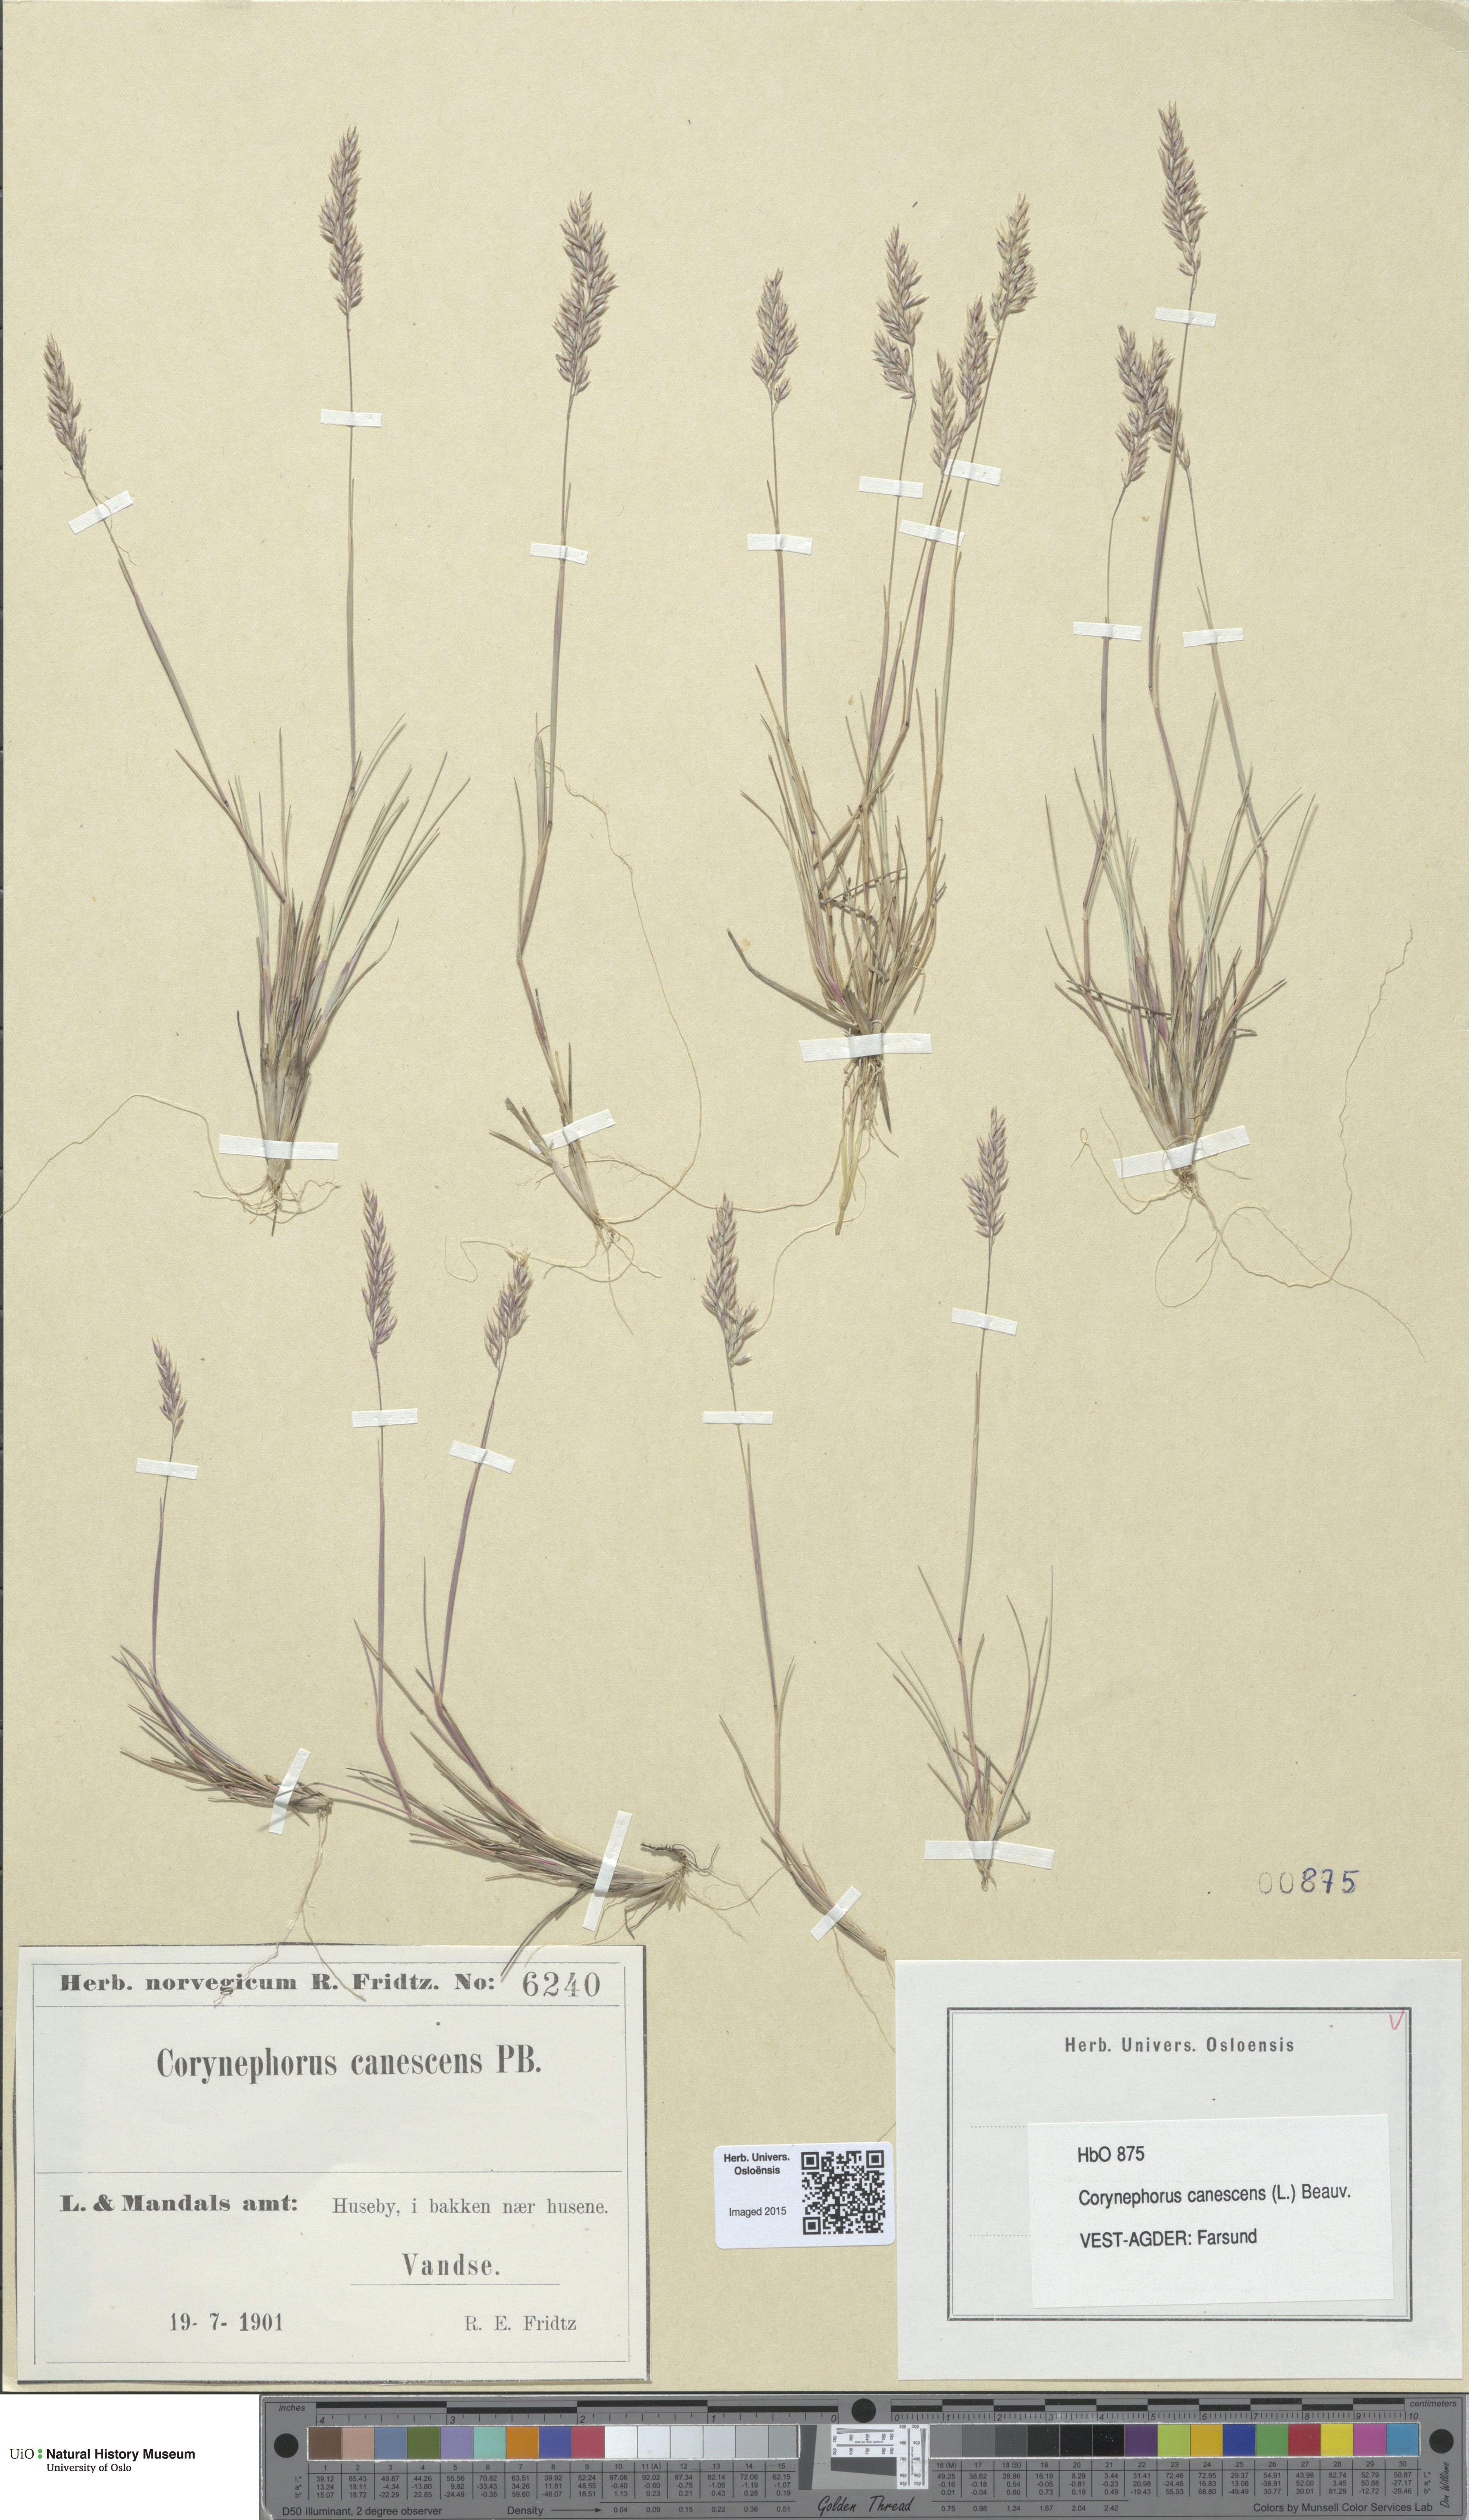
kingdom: Plantae
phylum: Tracheophyta
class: Liliopsida
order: Poales
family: Poaceae
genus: Corynephorus
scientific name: Corynephorus canescens
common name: Grey hair-grass
